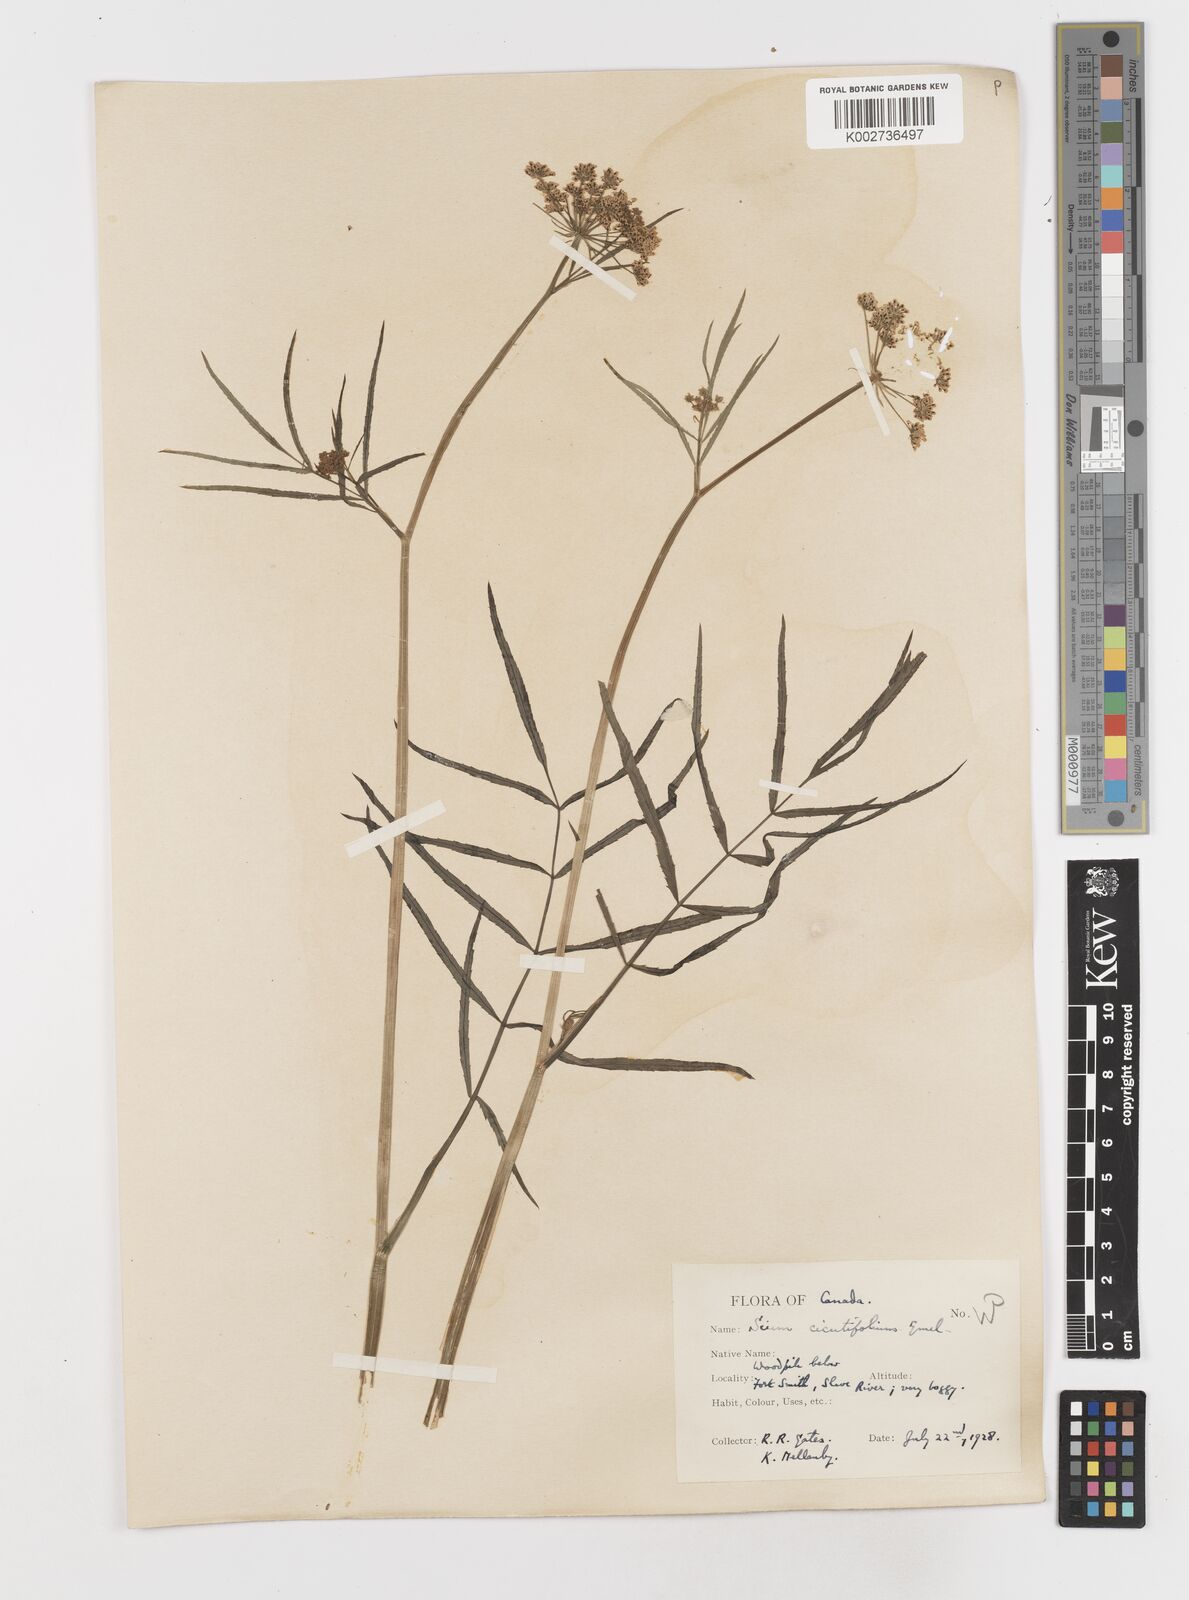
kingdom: Plantae
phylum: Tracheophyta
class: Magnoliopsida
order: Apiales
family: Apiaceae
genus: Sium
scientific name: Sium suave
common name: Hemlock water-parsnip
